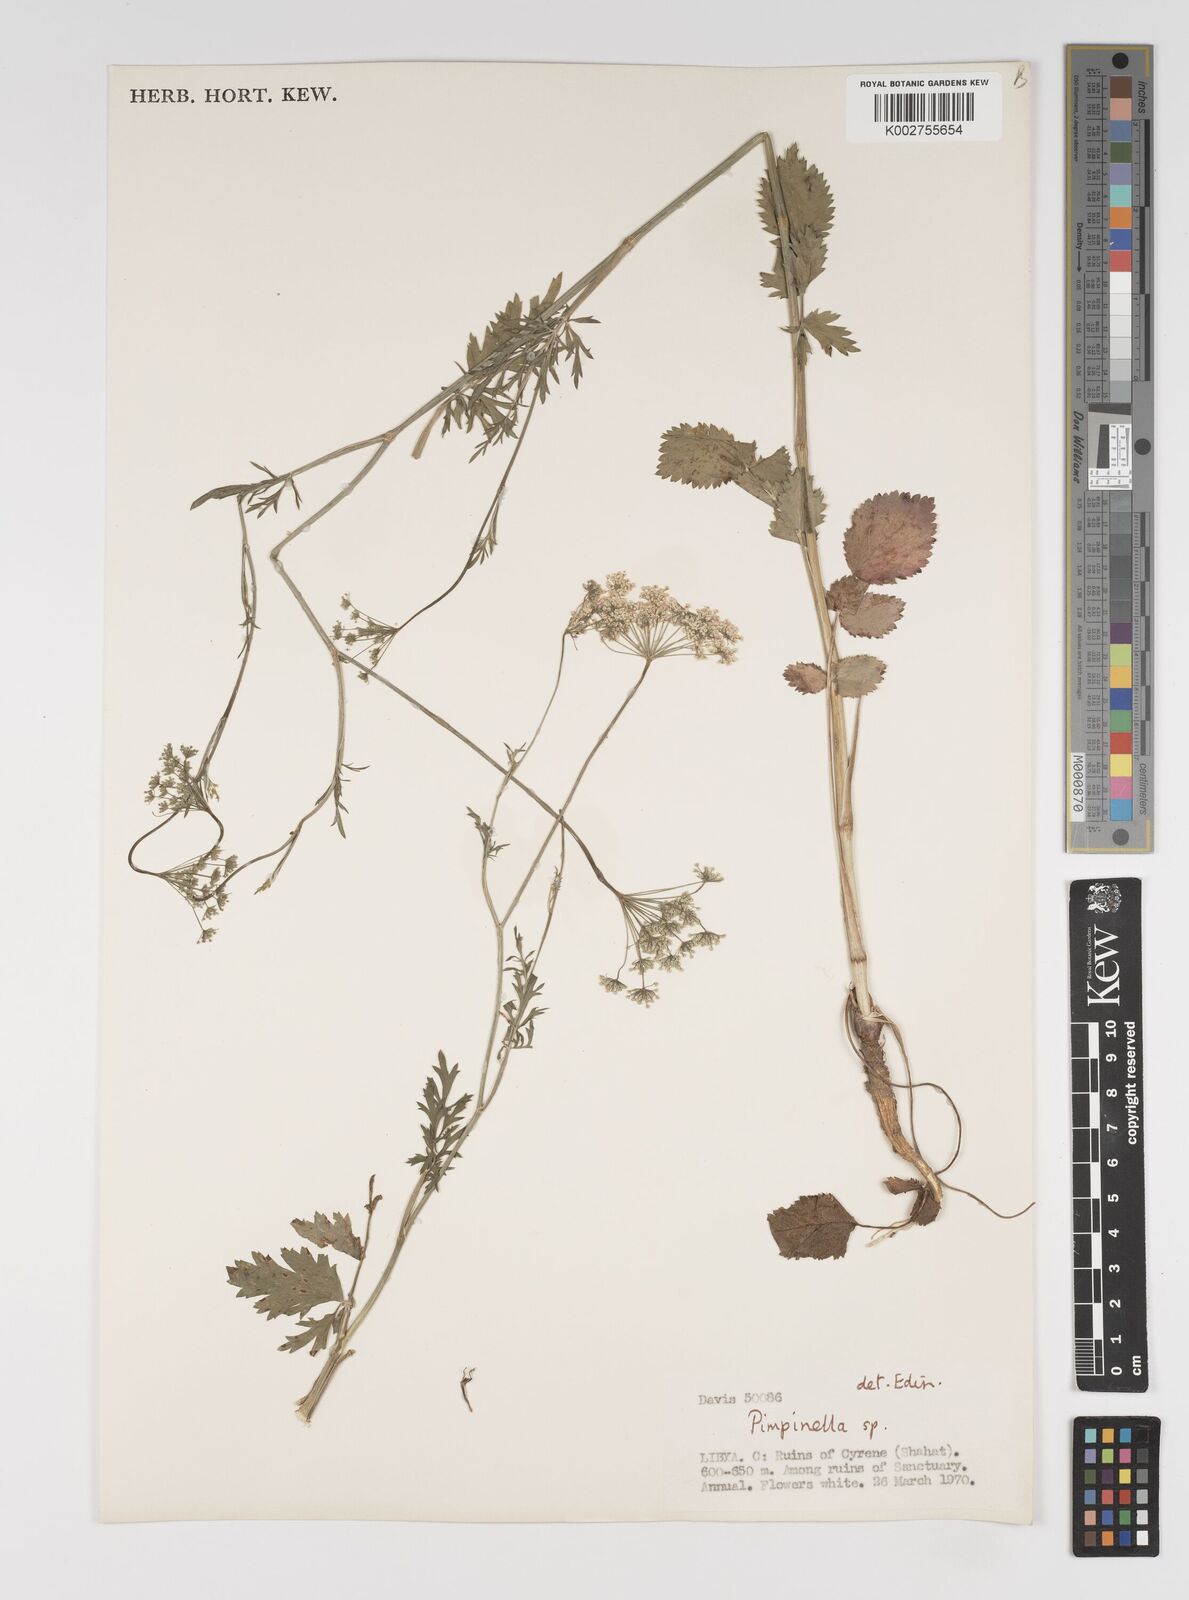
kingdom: Plantae
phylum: Tracheophyta
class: Magnoliopsida
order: Apiales
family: Apiaceae
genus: Pimpinella
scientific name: Pimpinella
